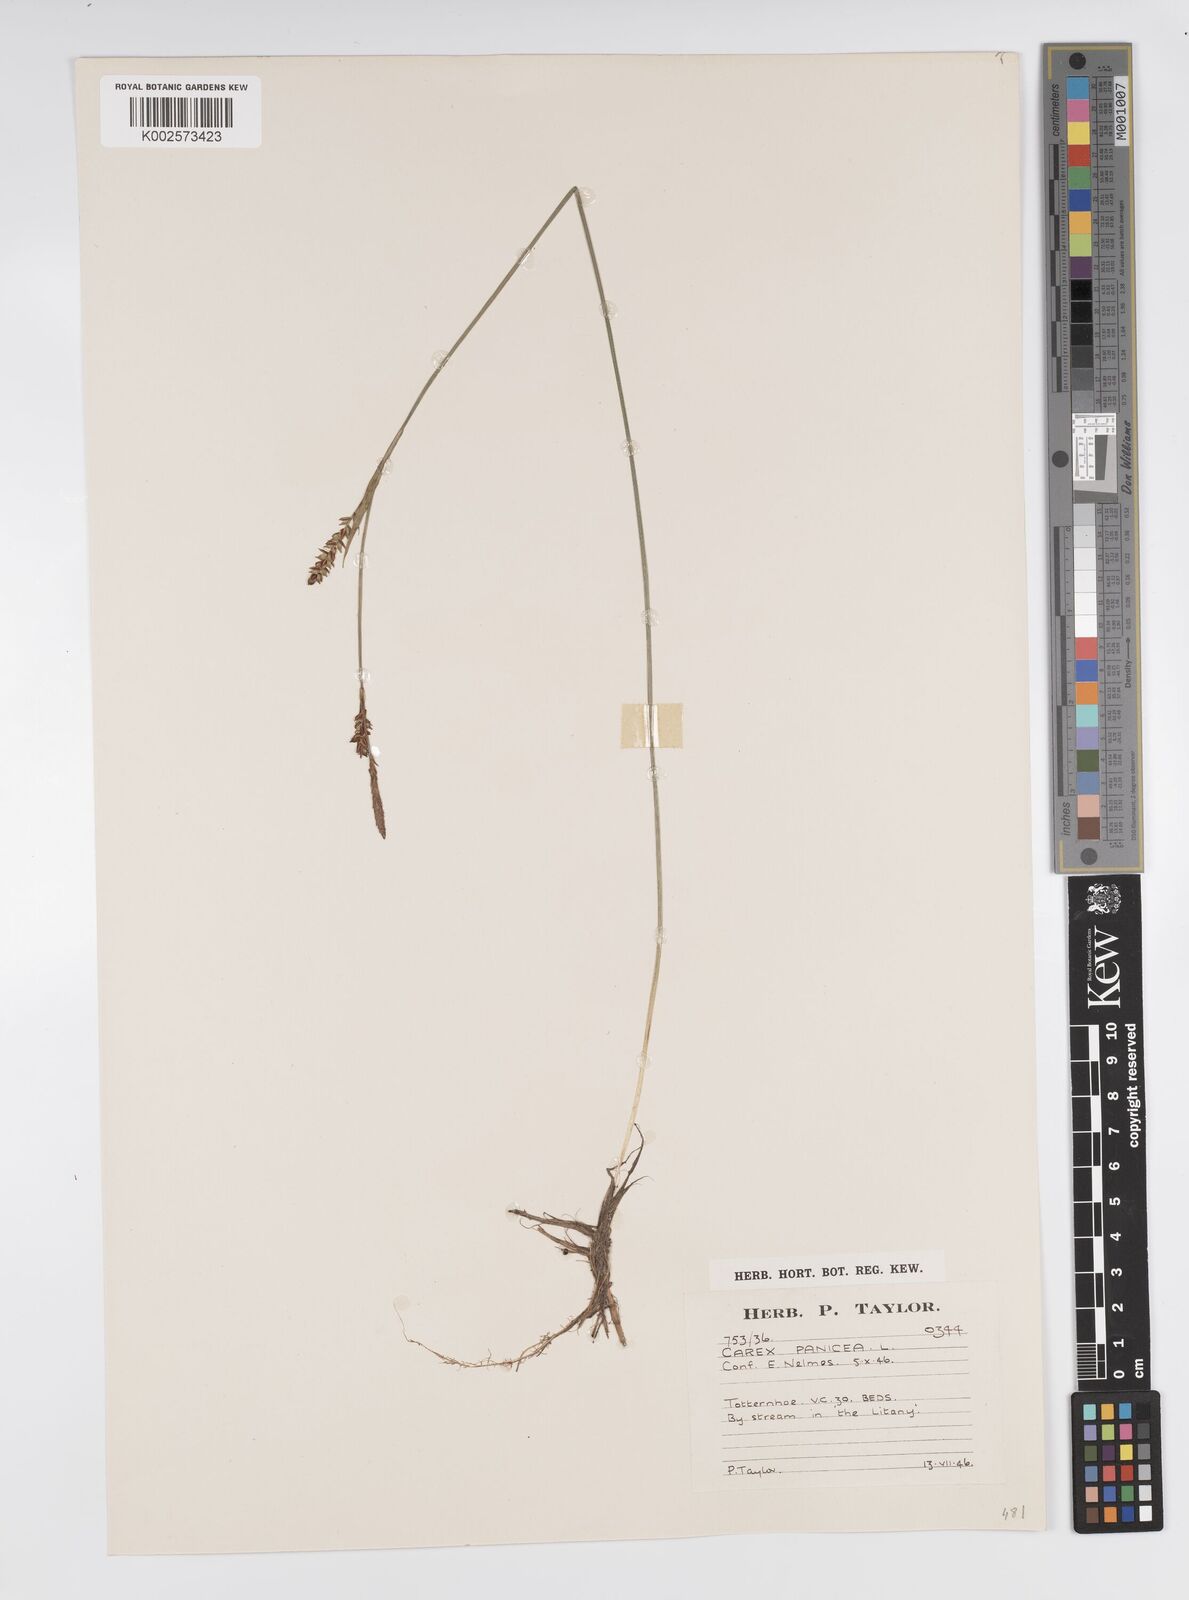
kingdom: Plantae
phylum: Tracheophyta
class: Liliopsida
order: Poales
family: Cyperaceae
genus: Carex
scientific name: Carex panicea
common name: Carnation sedge
